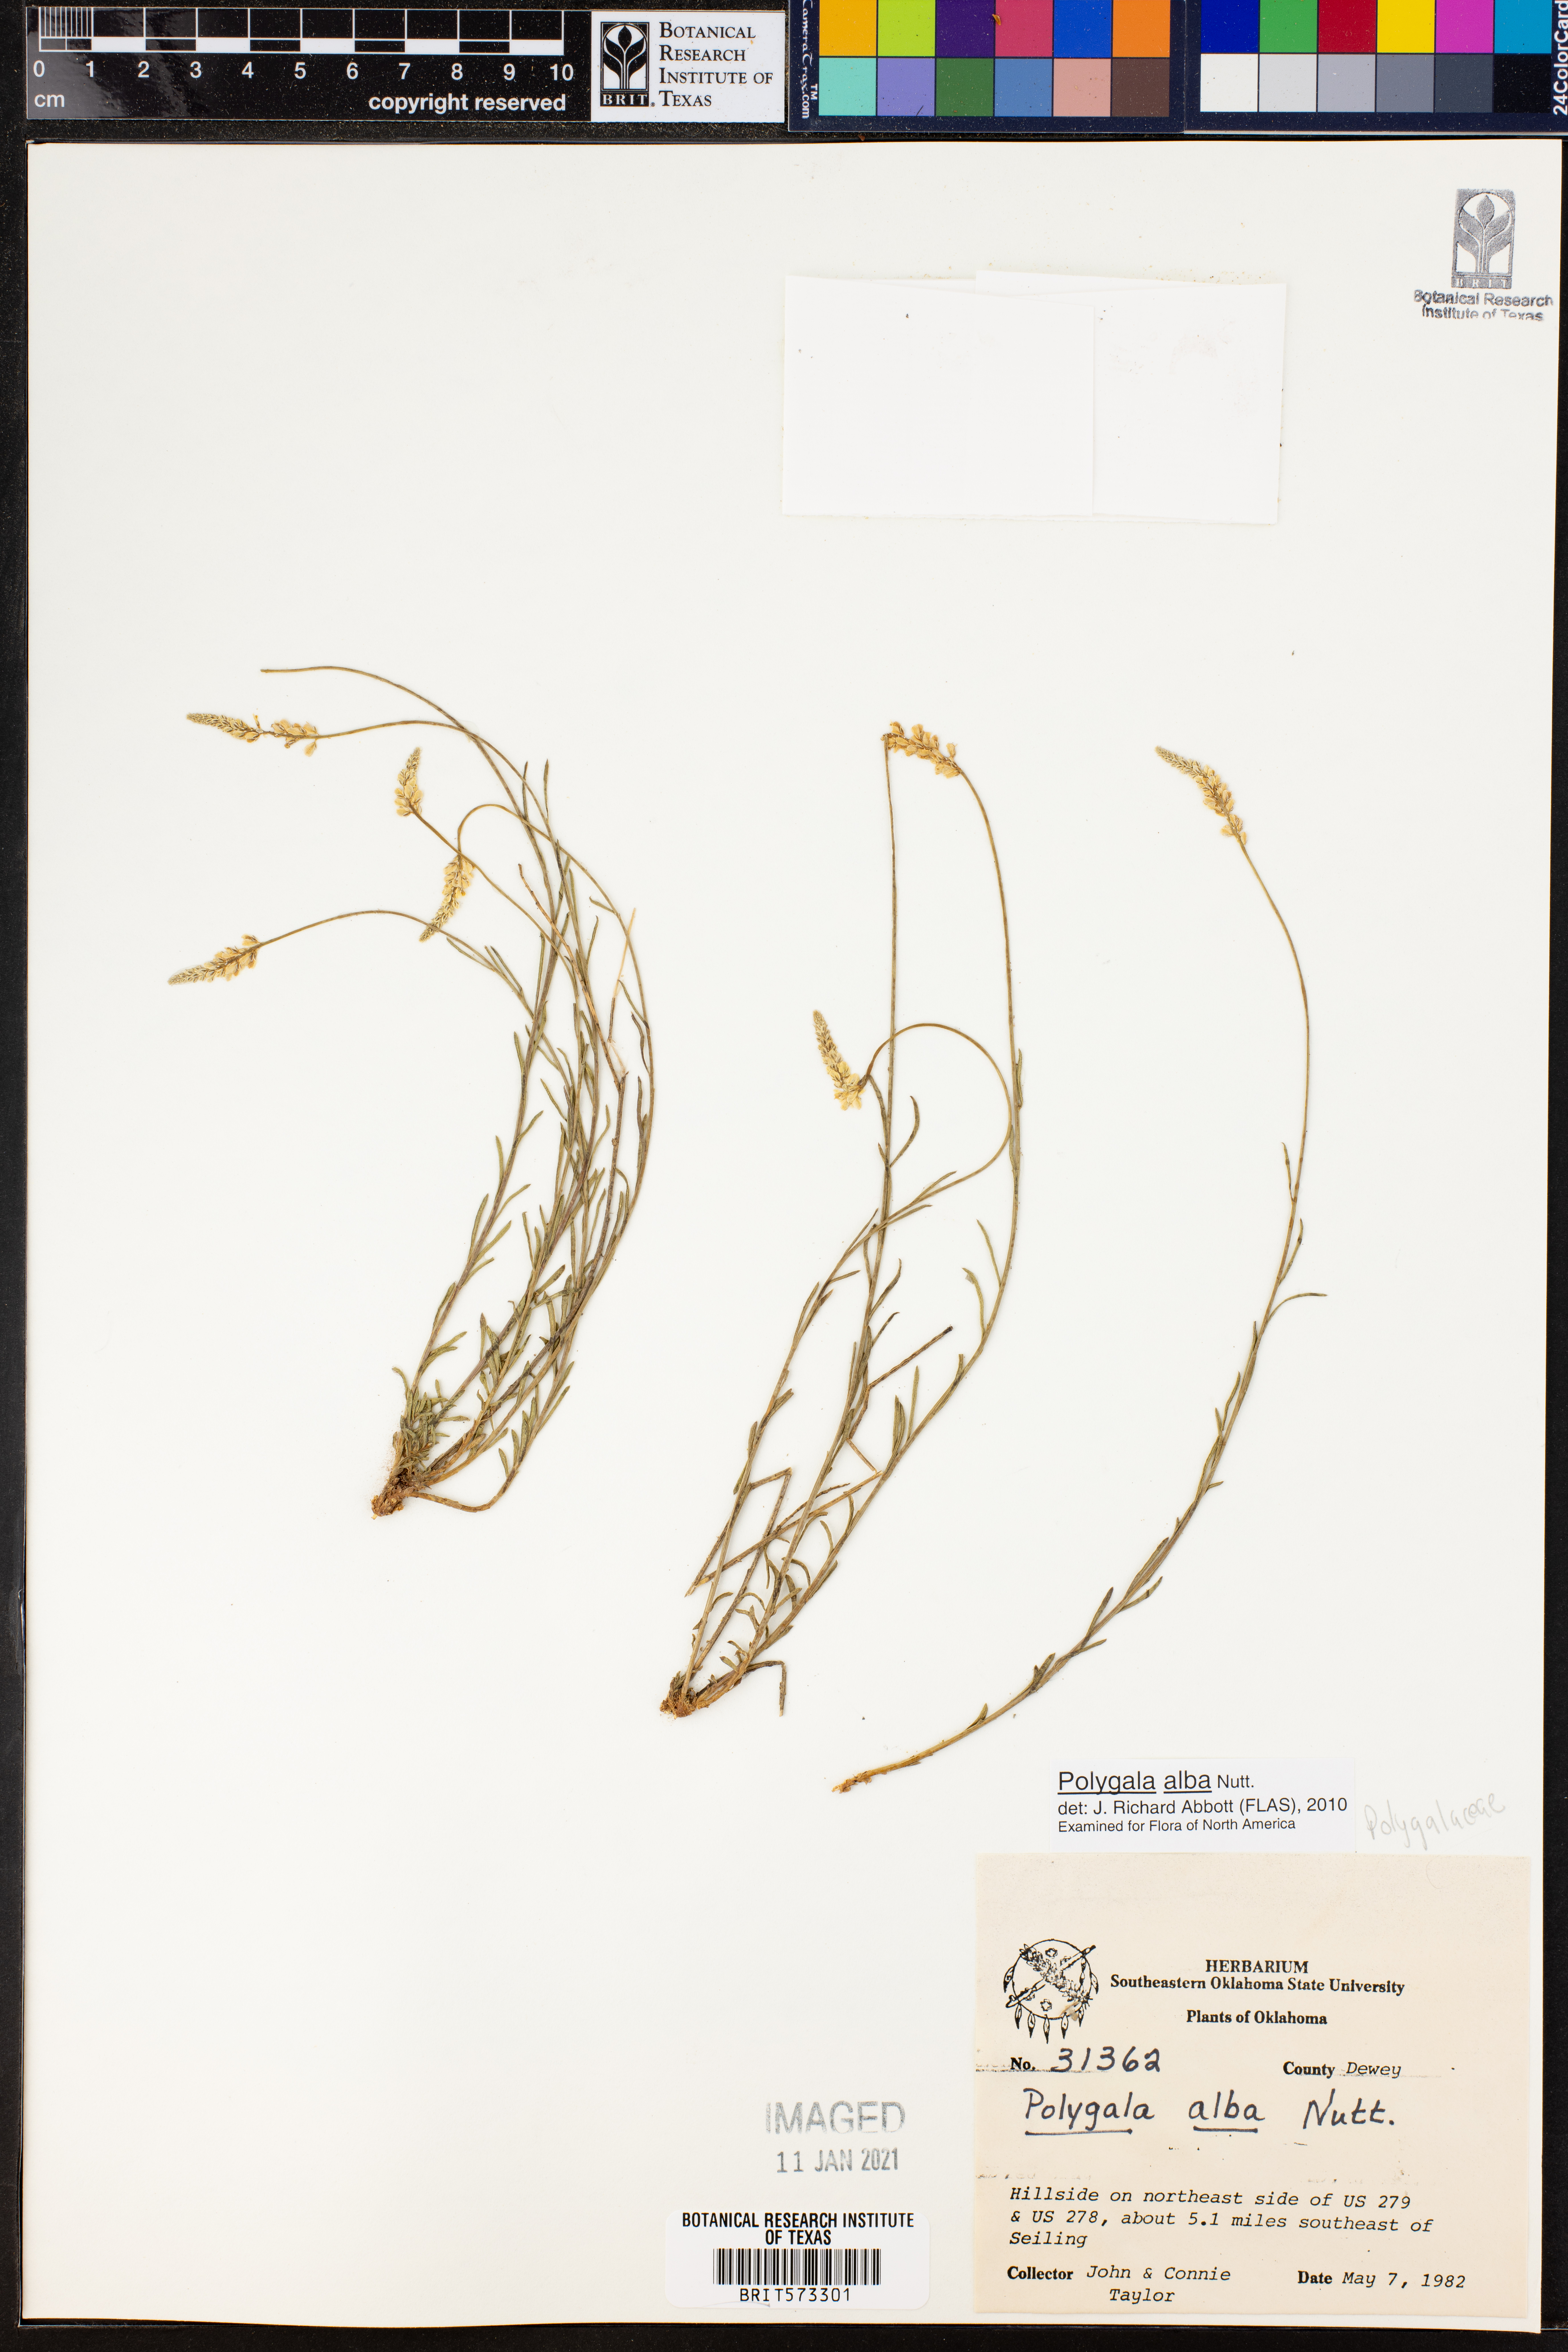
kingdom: Plantae
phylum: Tracheophyta
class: Magnoliopsida
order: Fabales
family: Polygalaceae
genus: Polygala
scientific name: Polygala alba
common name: White milkwort
